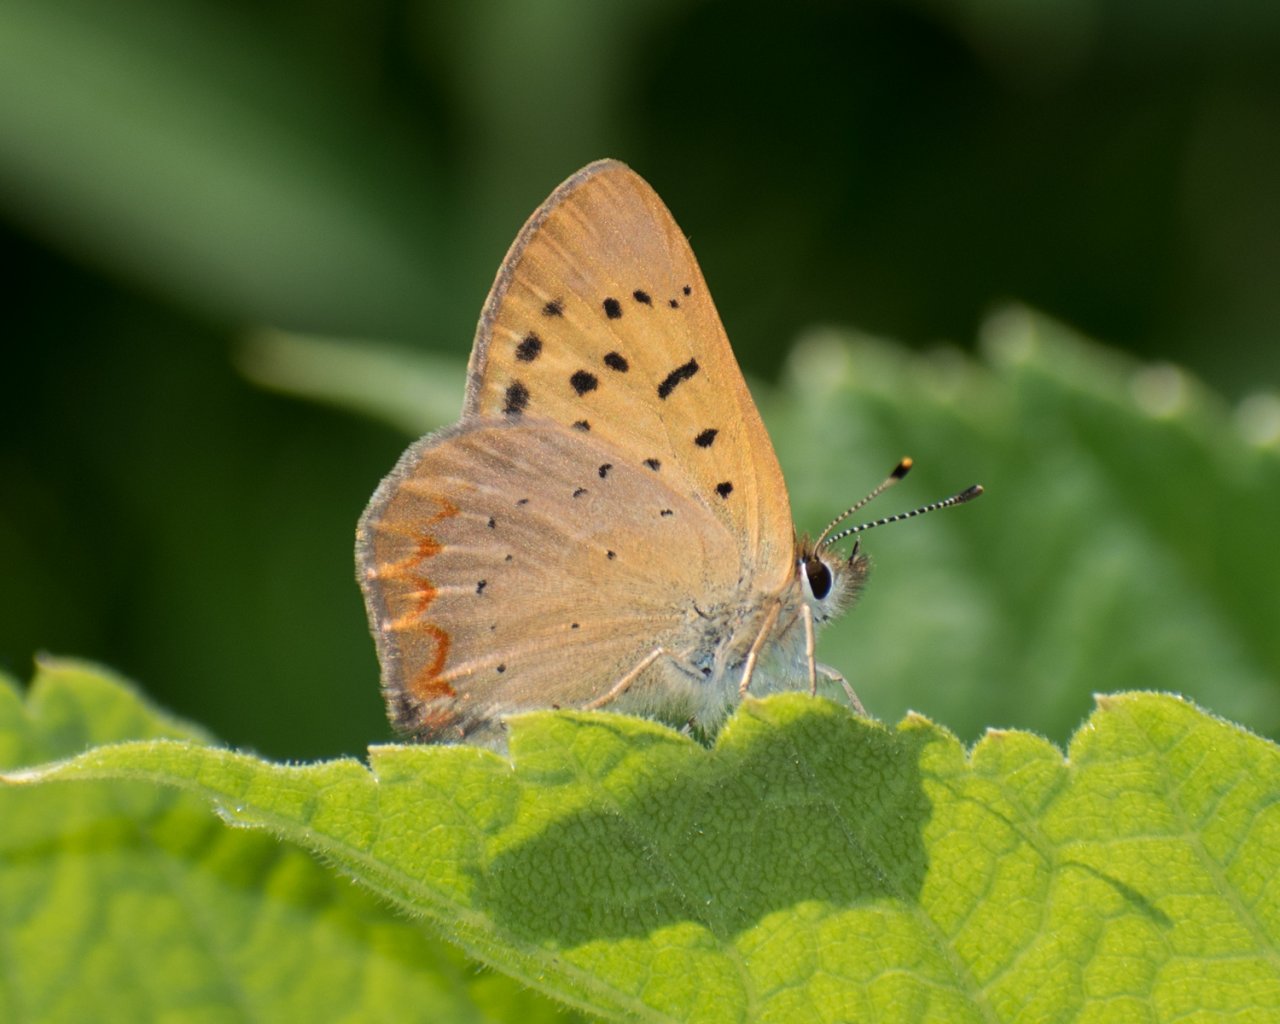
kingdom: Animalia
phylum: Arthropoda
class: Insecta
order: Lepidoptera
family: Sesiidae
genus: Sesia
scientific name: Sesia Lycaena helloides
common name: Purplish Copper
